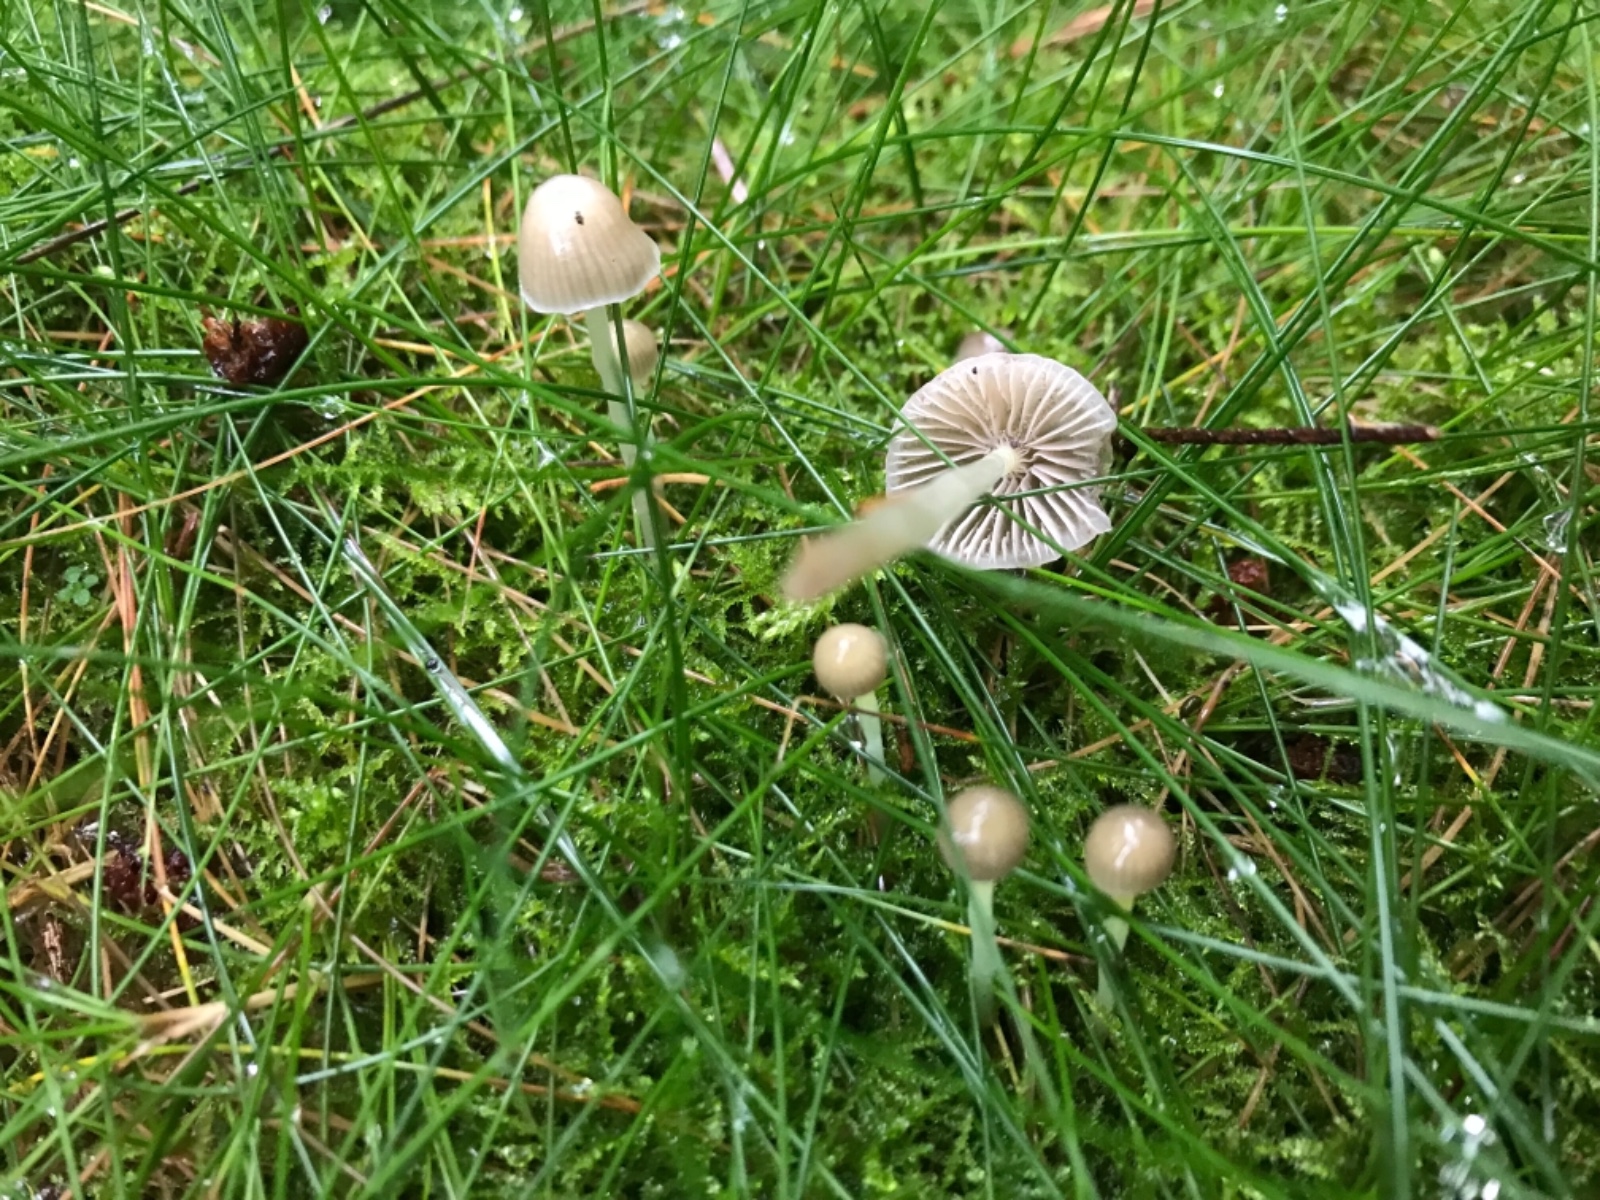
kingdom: Fungi
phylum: Basidiomycota
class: Agaricomycetes
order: Agaricales
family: Mycenaceae
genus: Mycena
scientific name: Mycena epipterygia
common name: gulstokket huesvamp
